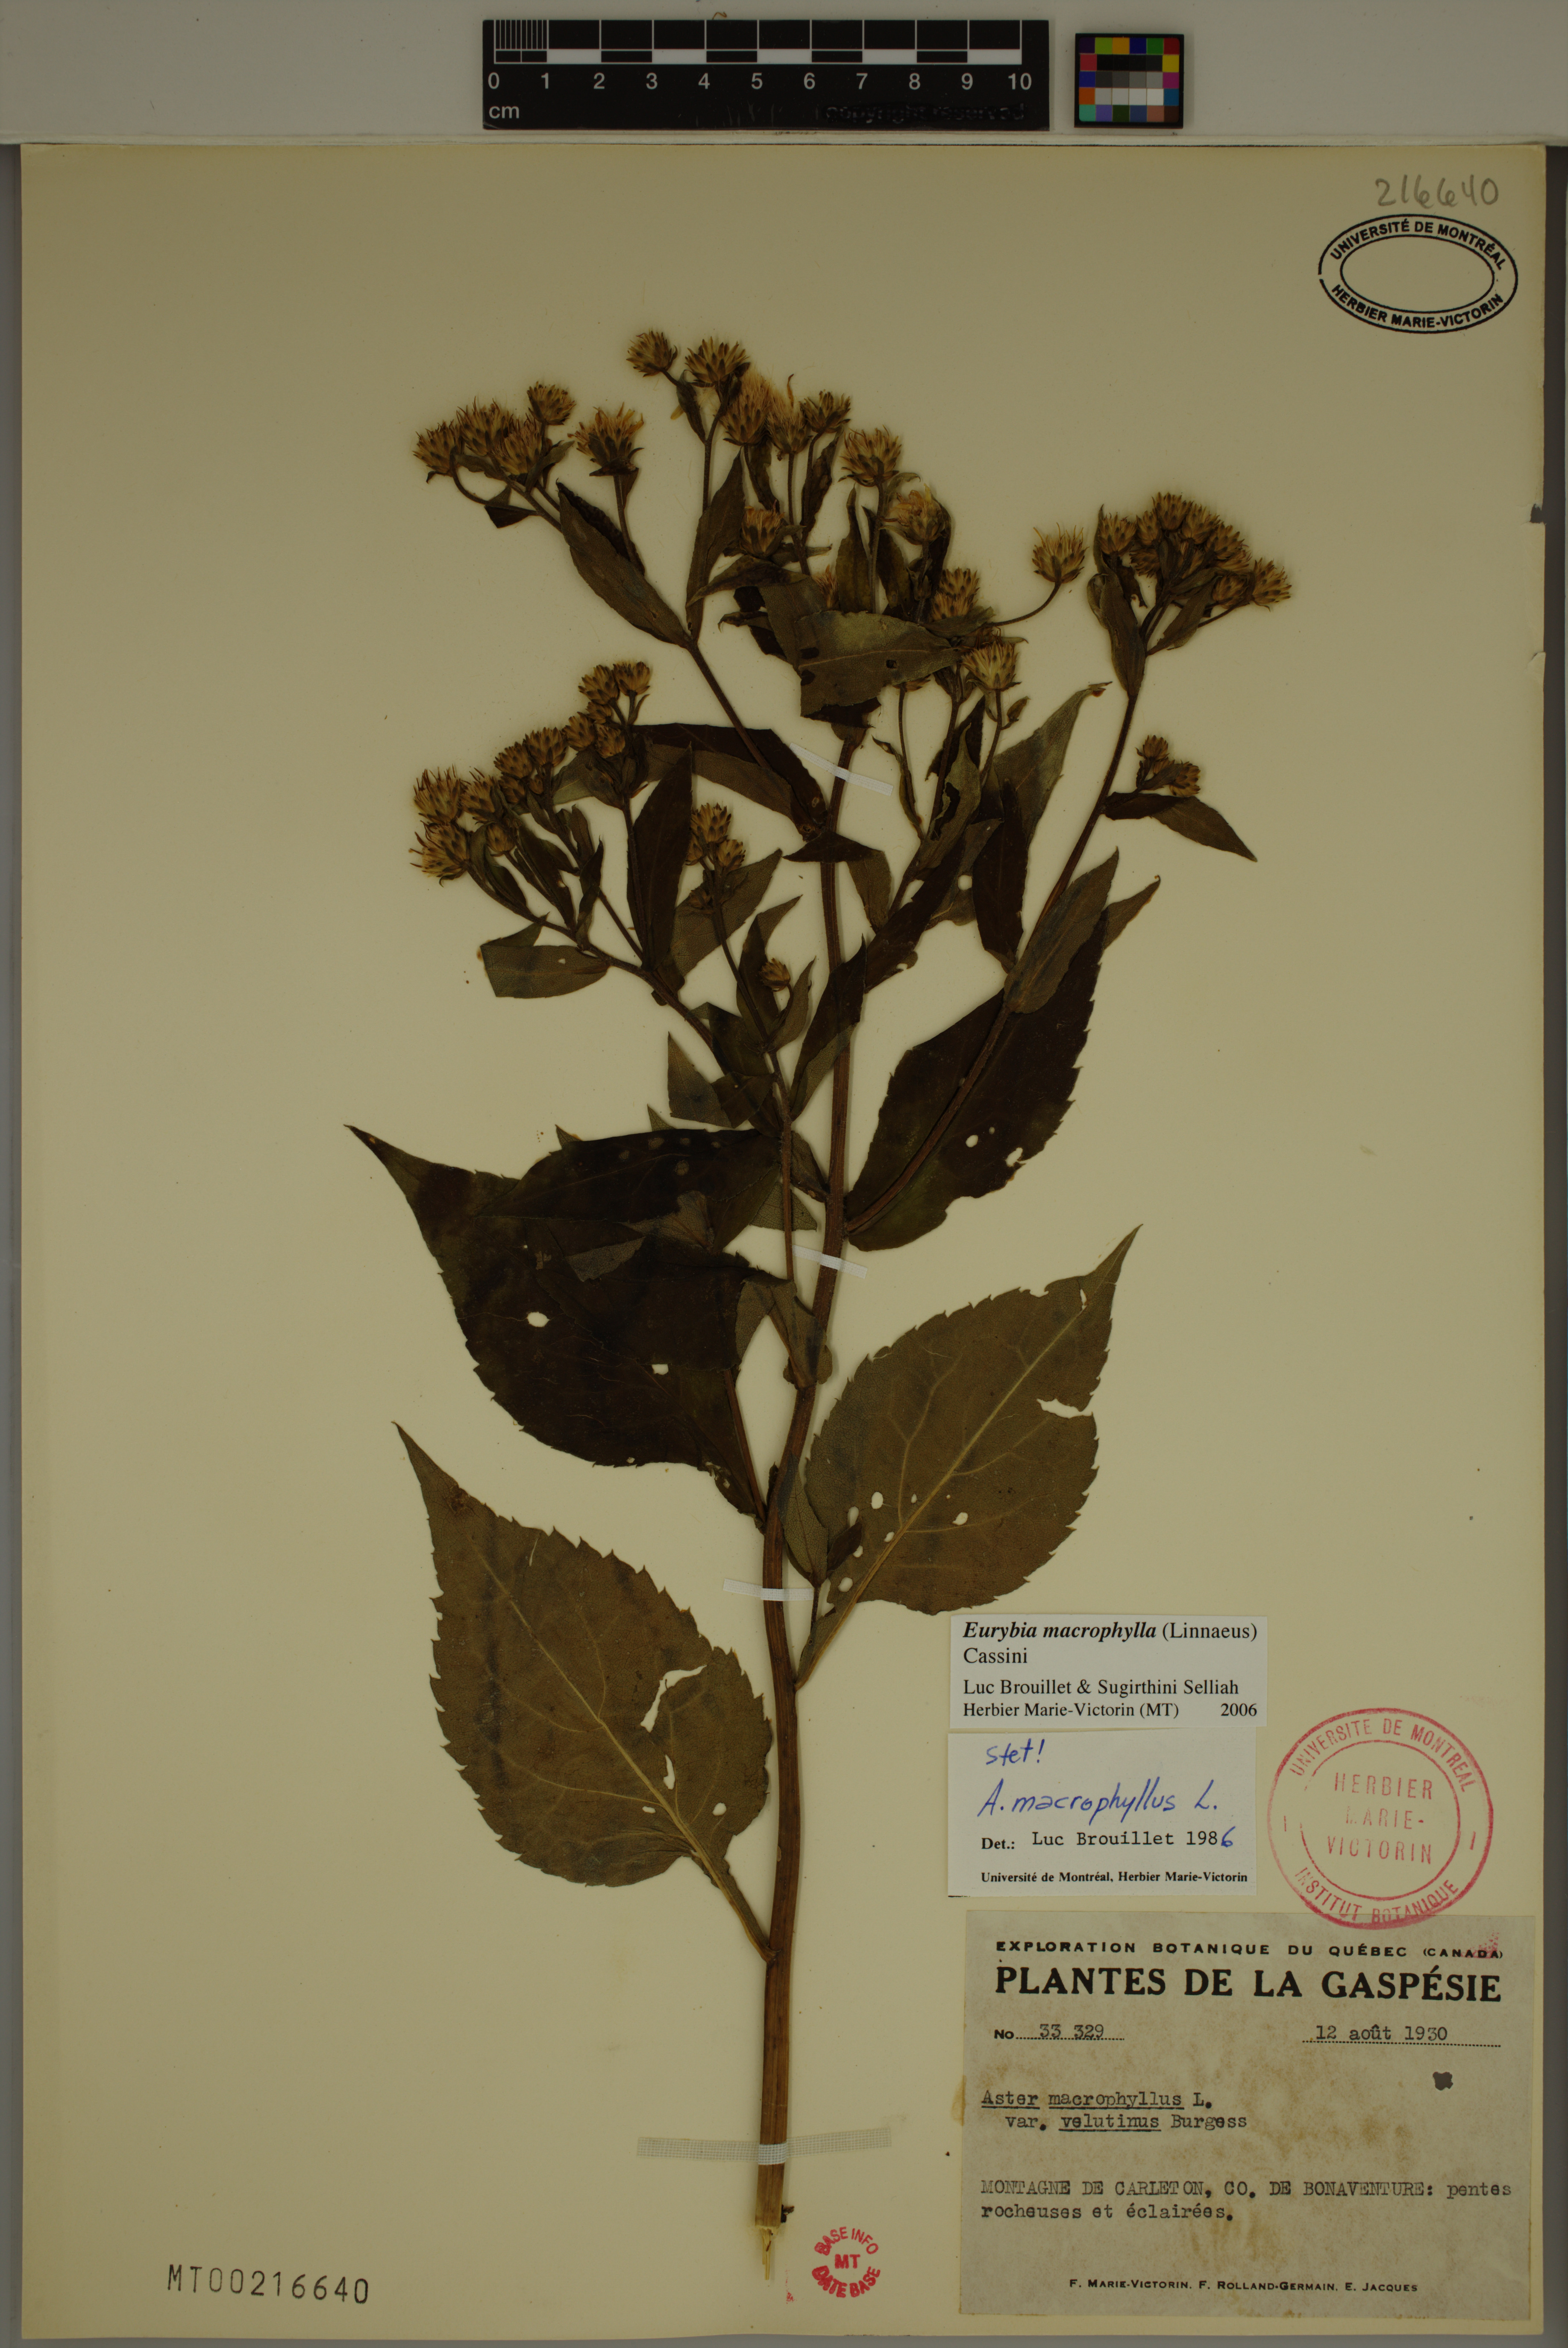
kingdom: Plantae
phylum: Tracheophyta
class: Magnoliopsida
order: Asterales
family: Asteraceae
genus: Eurybia
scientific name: Eurybia macrophylla
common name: Big-leaved aster
